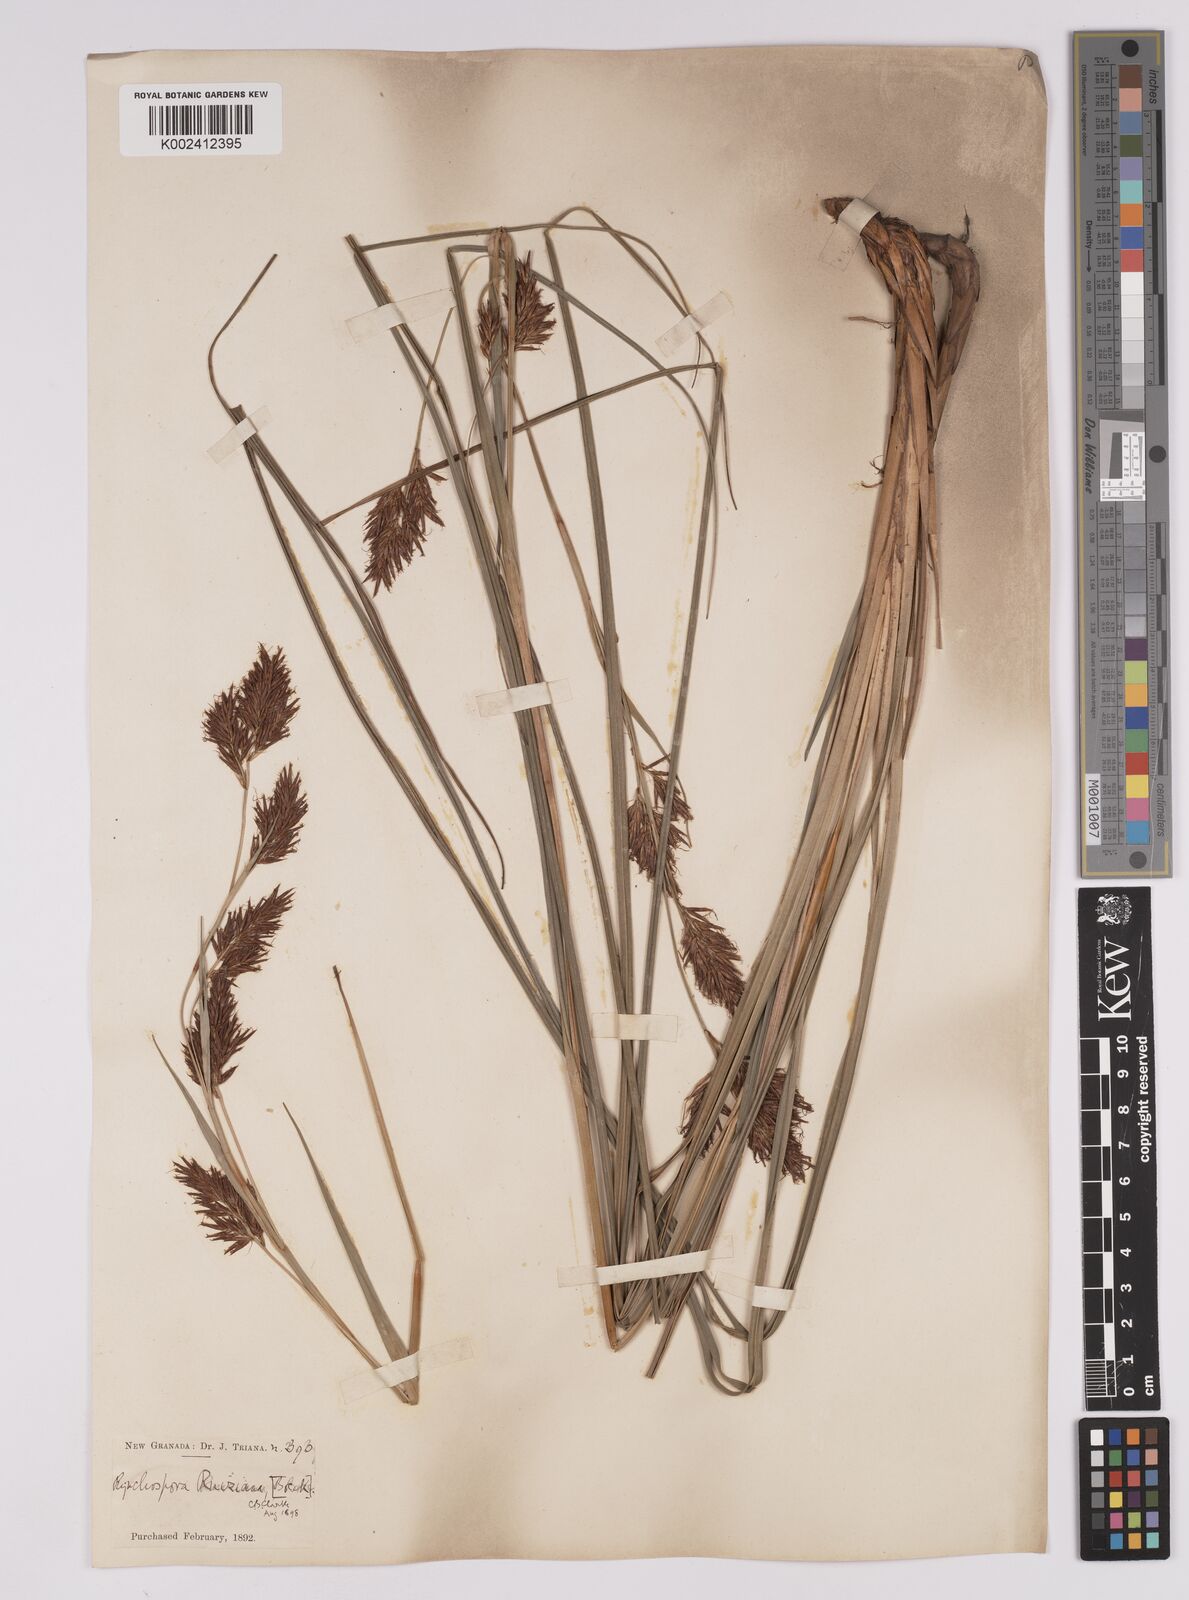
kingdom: Plantae
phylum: Tracheophyta
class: Liliopsida
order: Poales
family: Cyperaceae
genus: Rhynchospora
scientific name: Rhynchospora ruiziana
